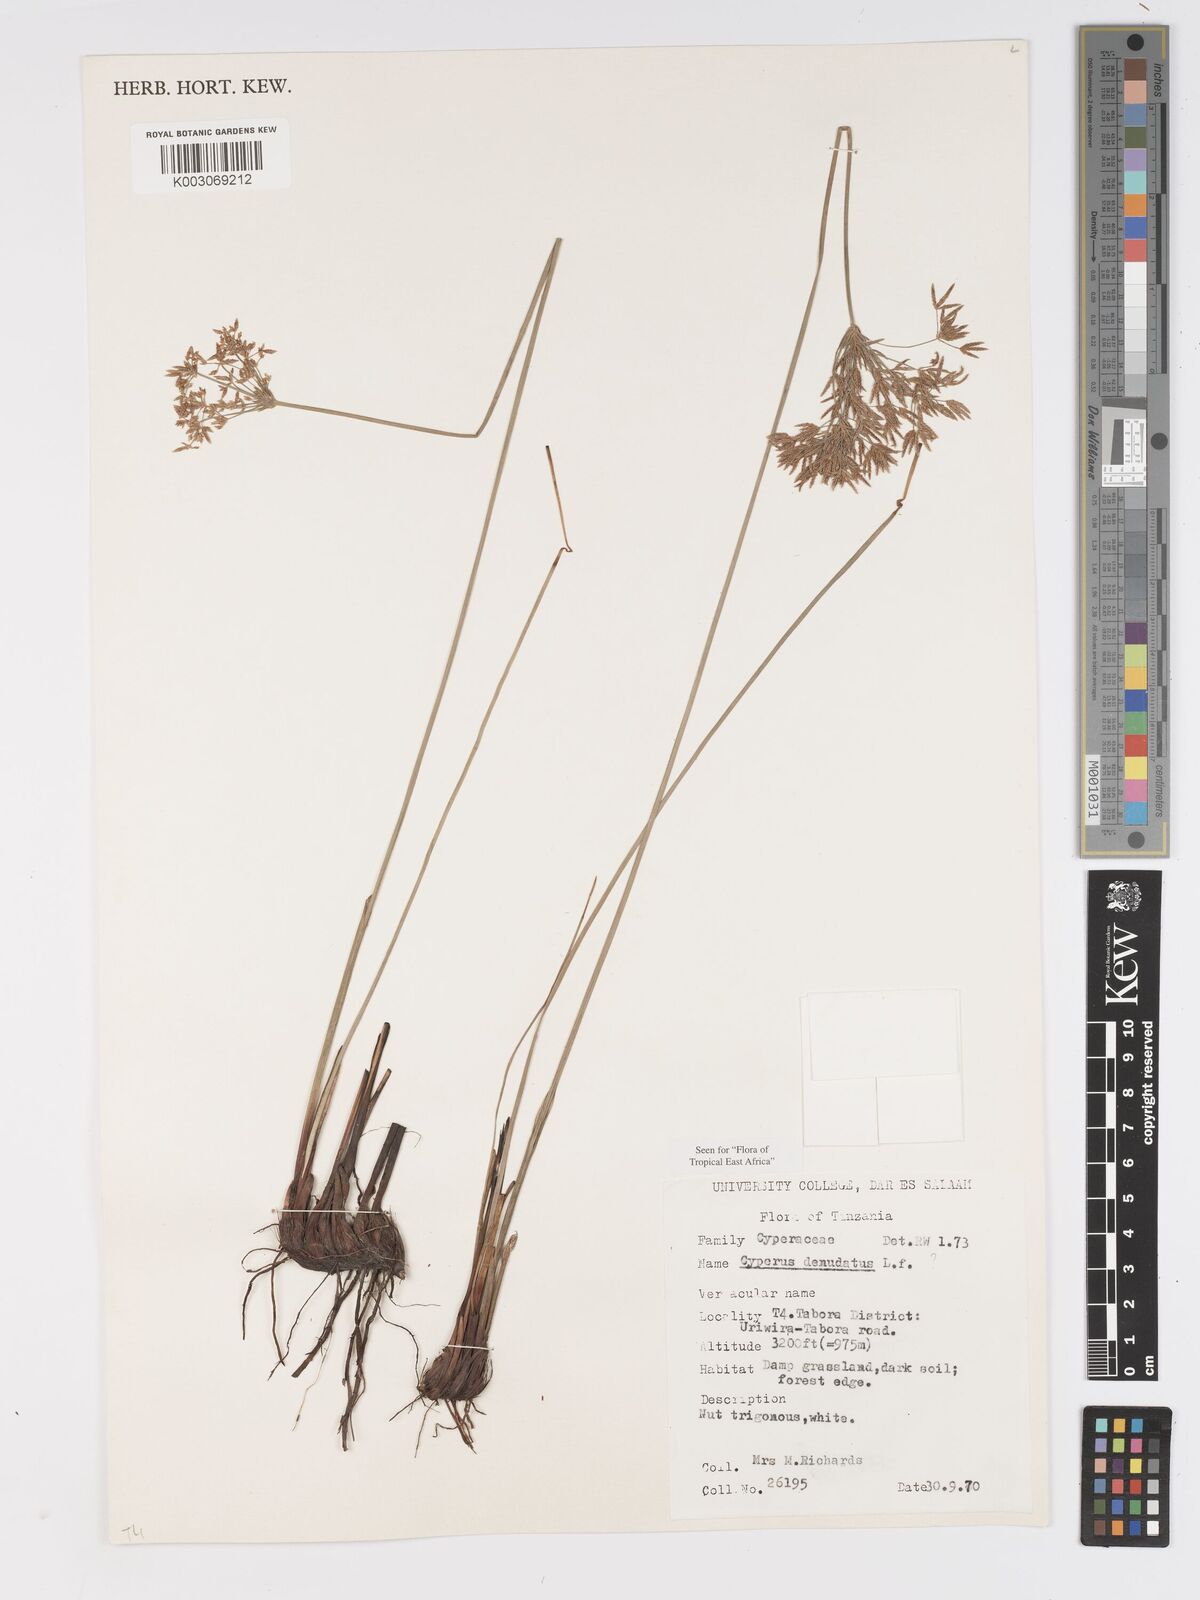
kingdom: Plantae
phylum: Tracheophyta
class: Liliopsida
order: Poales
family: Cyperaceae
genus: Cyperus
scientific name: Cyperus denudatus
